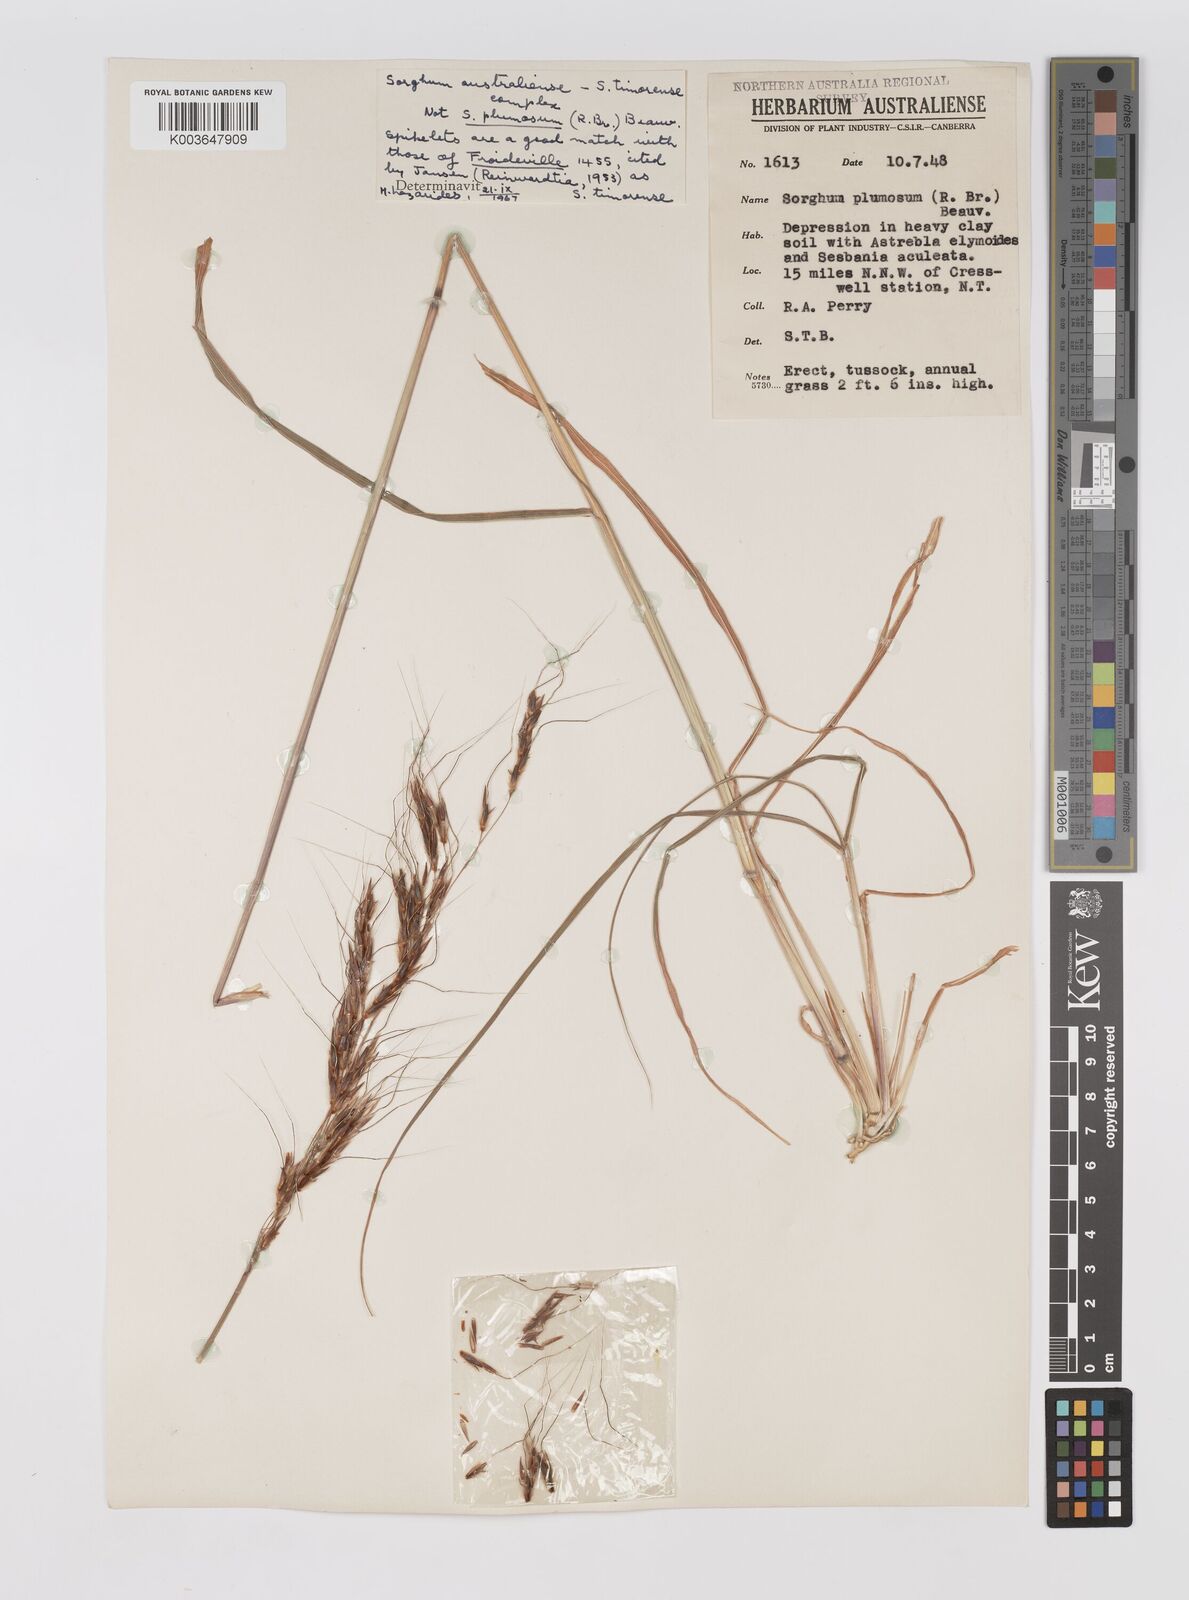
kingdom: Plantae
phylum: Tracheophyta
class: Liliopsida
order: Poales
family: Poaceae
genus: Sarga
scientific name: Sarga timorensis
